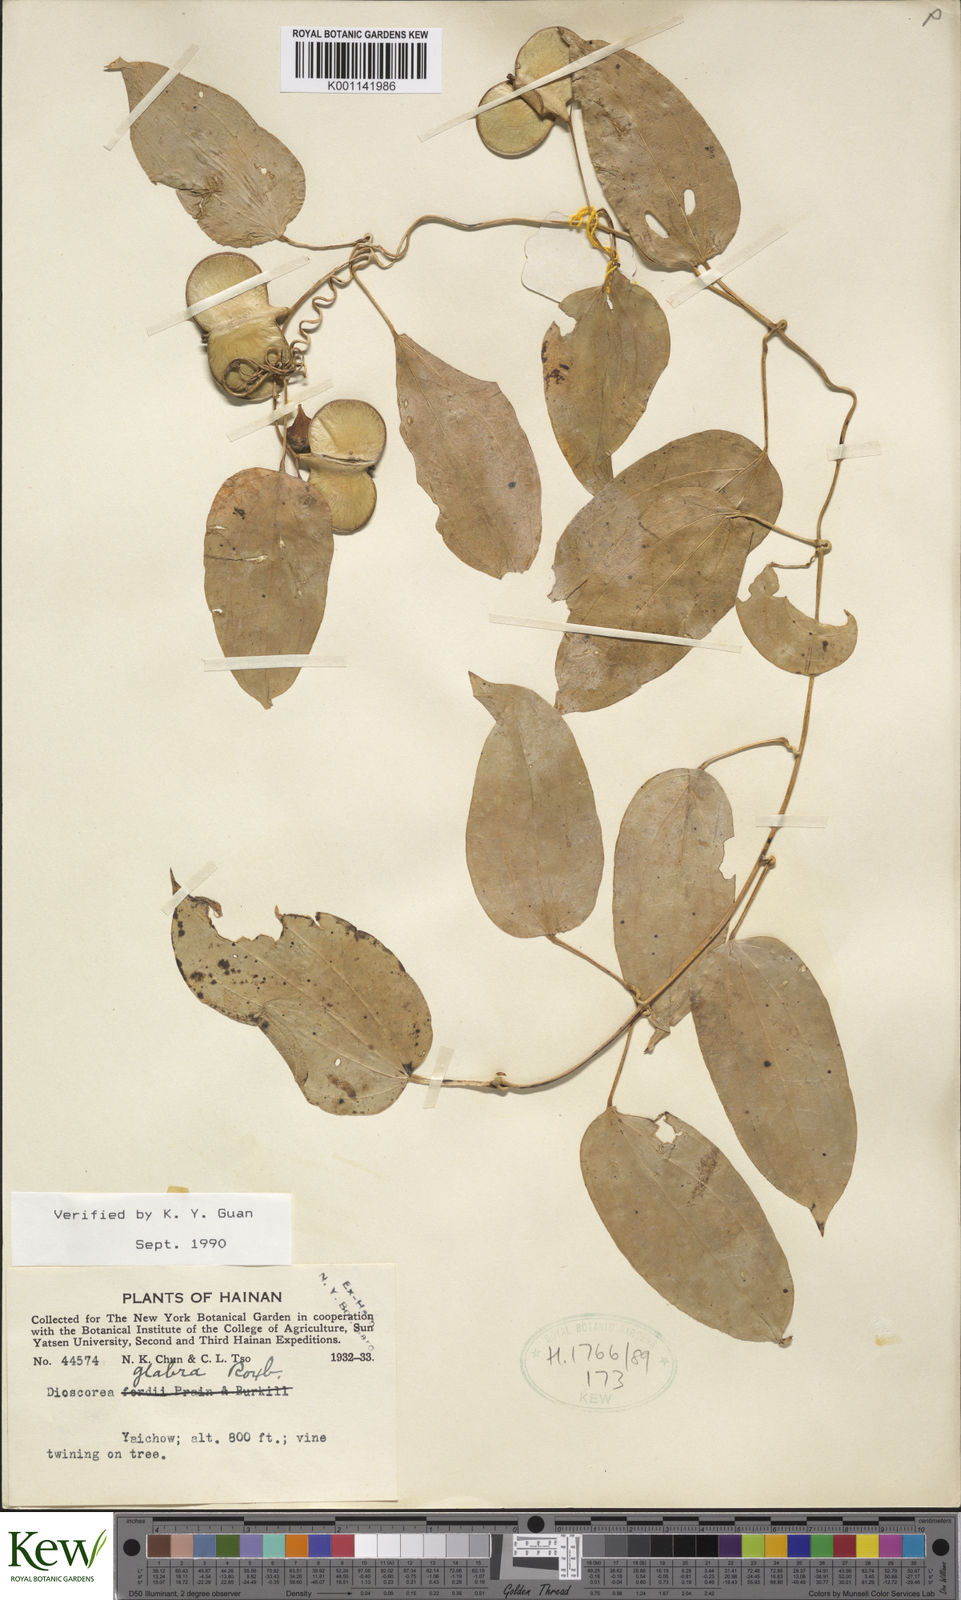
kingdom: Plantae
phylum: Tracheophyta
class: Liliopsida
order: Dioscoreales
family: Dioscoreaceae
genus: Dioscorea
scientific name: Dioscorea glabra
